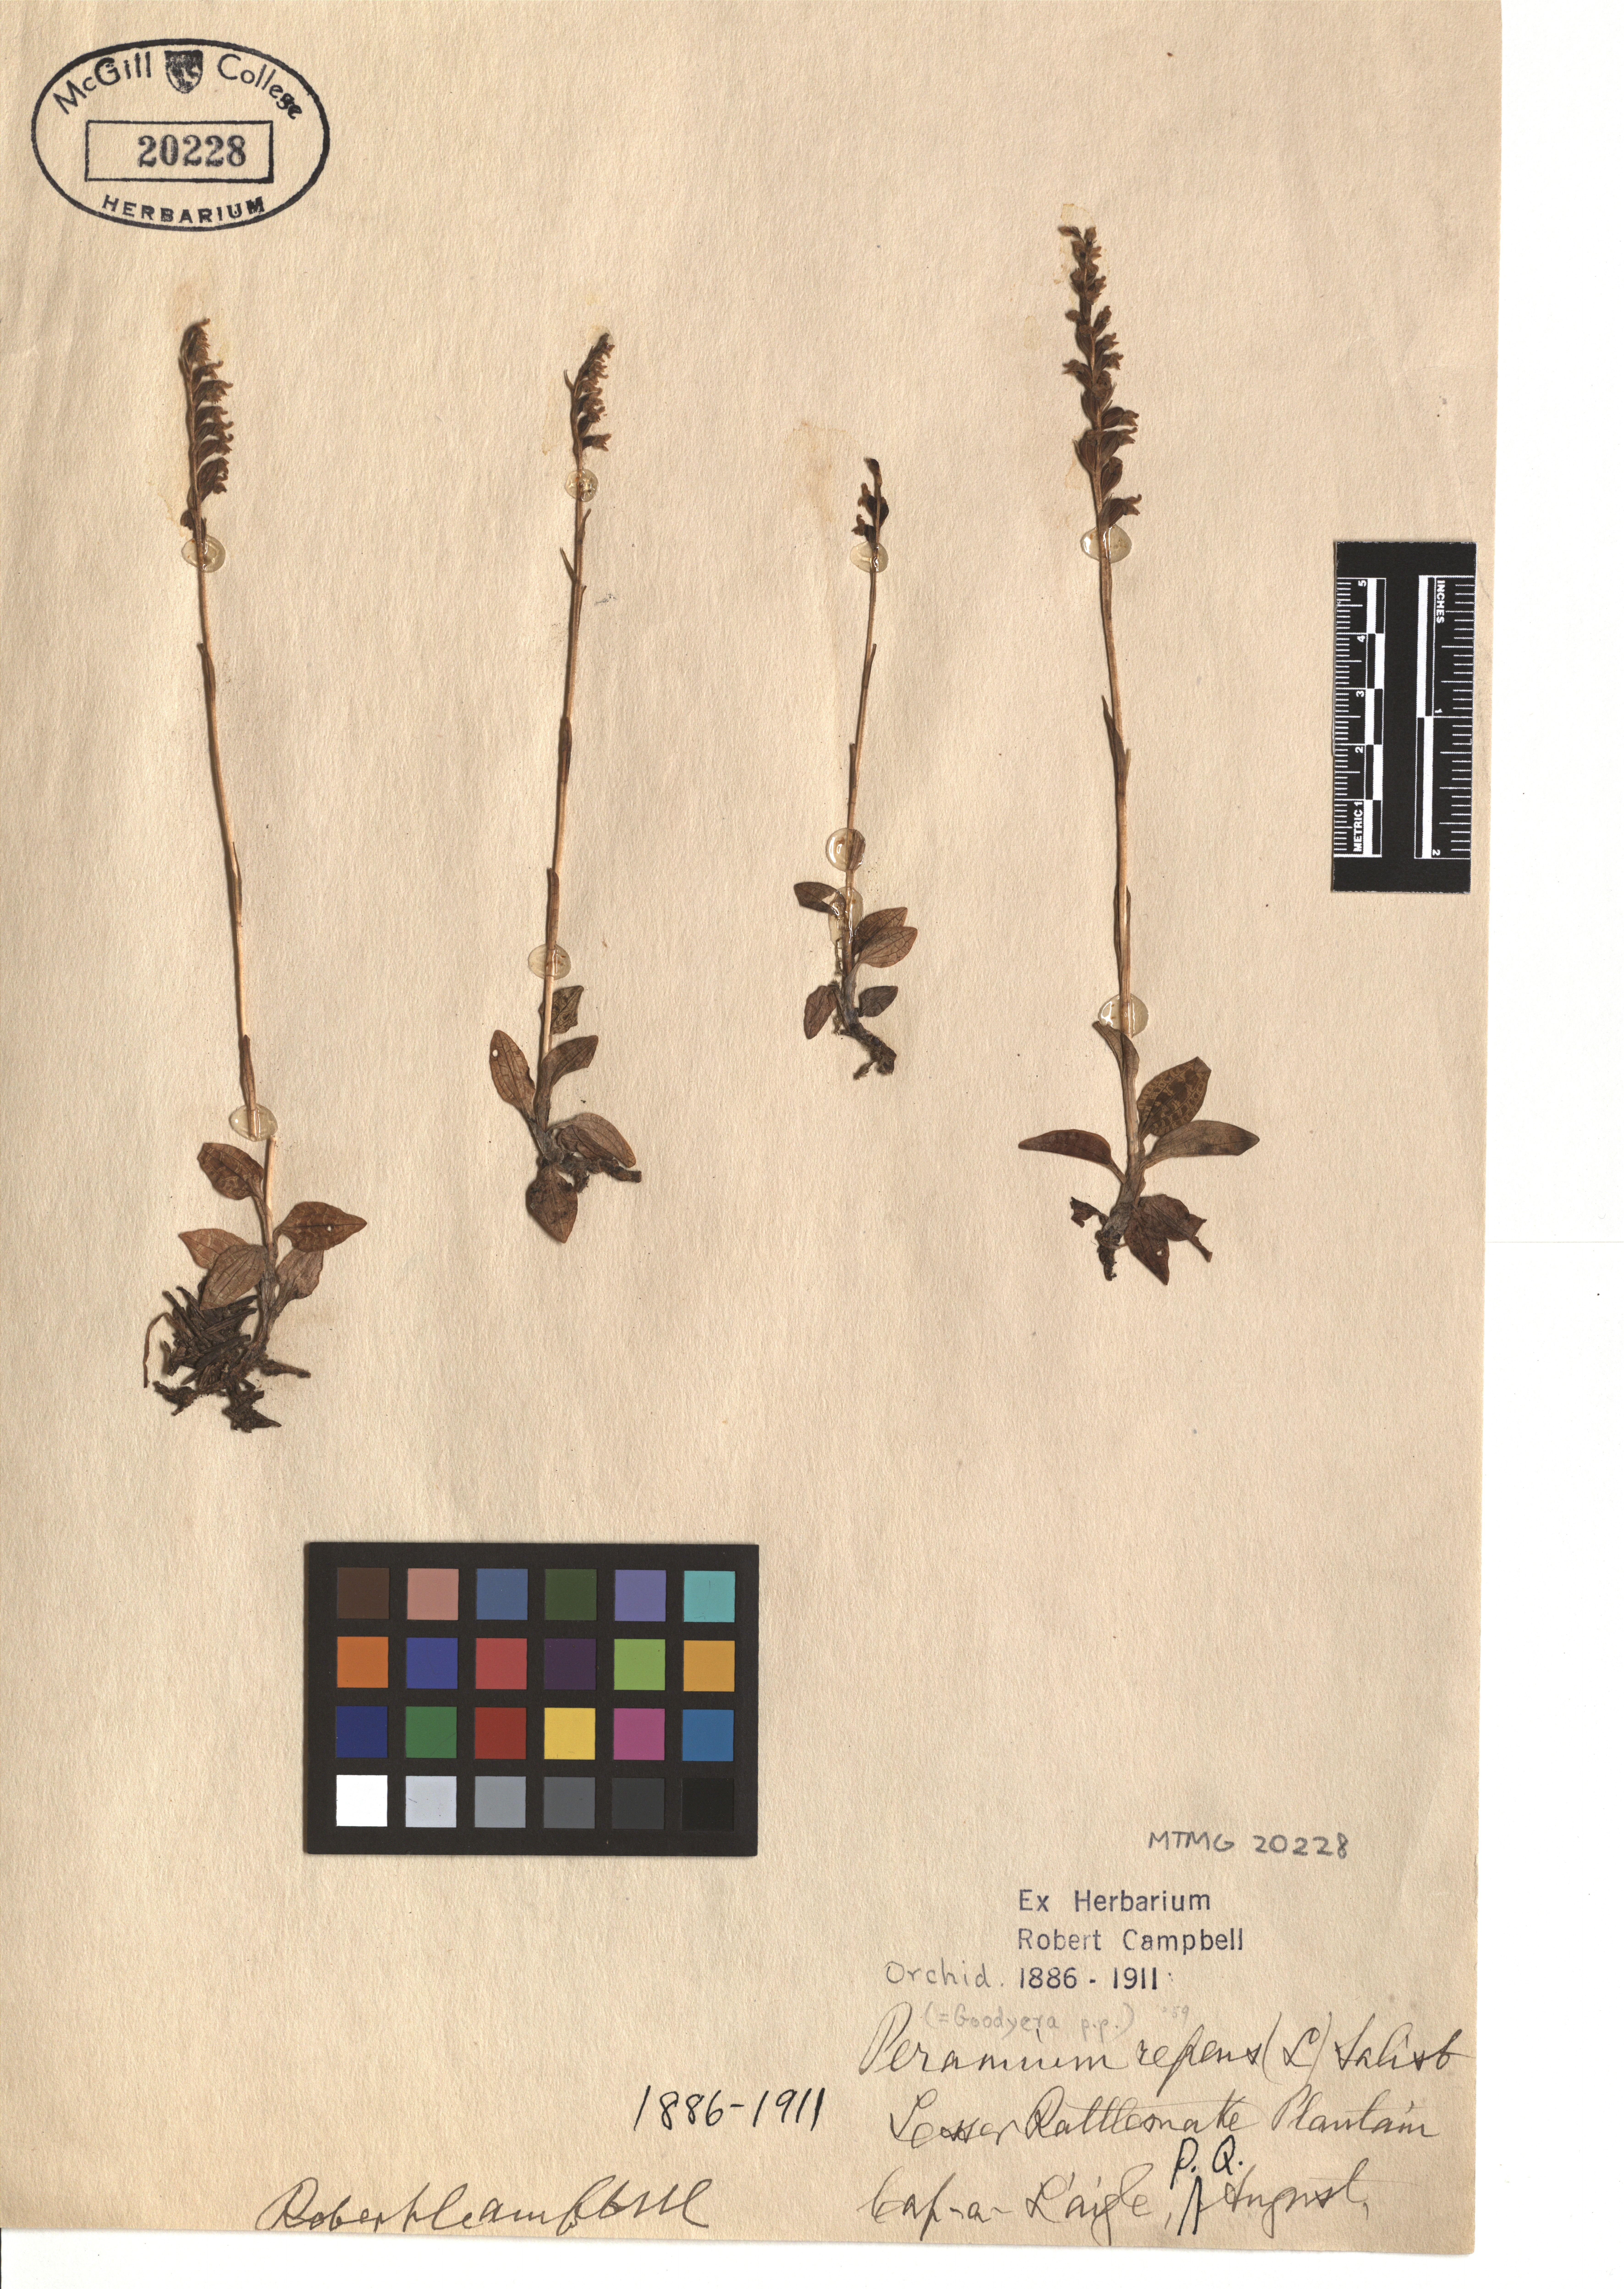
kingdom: Plantae
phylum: Tracheophyta
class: Liliopsida
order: Asparagales
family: Orchidaceae
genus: Goodyera
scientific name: Goodyera repens
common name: Creeping lady's-tresses
